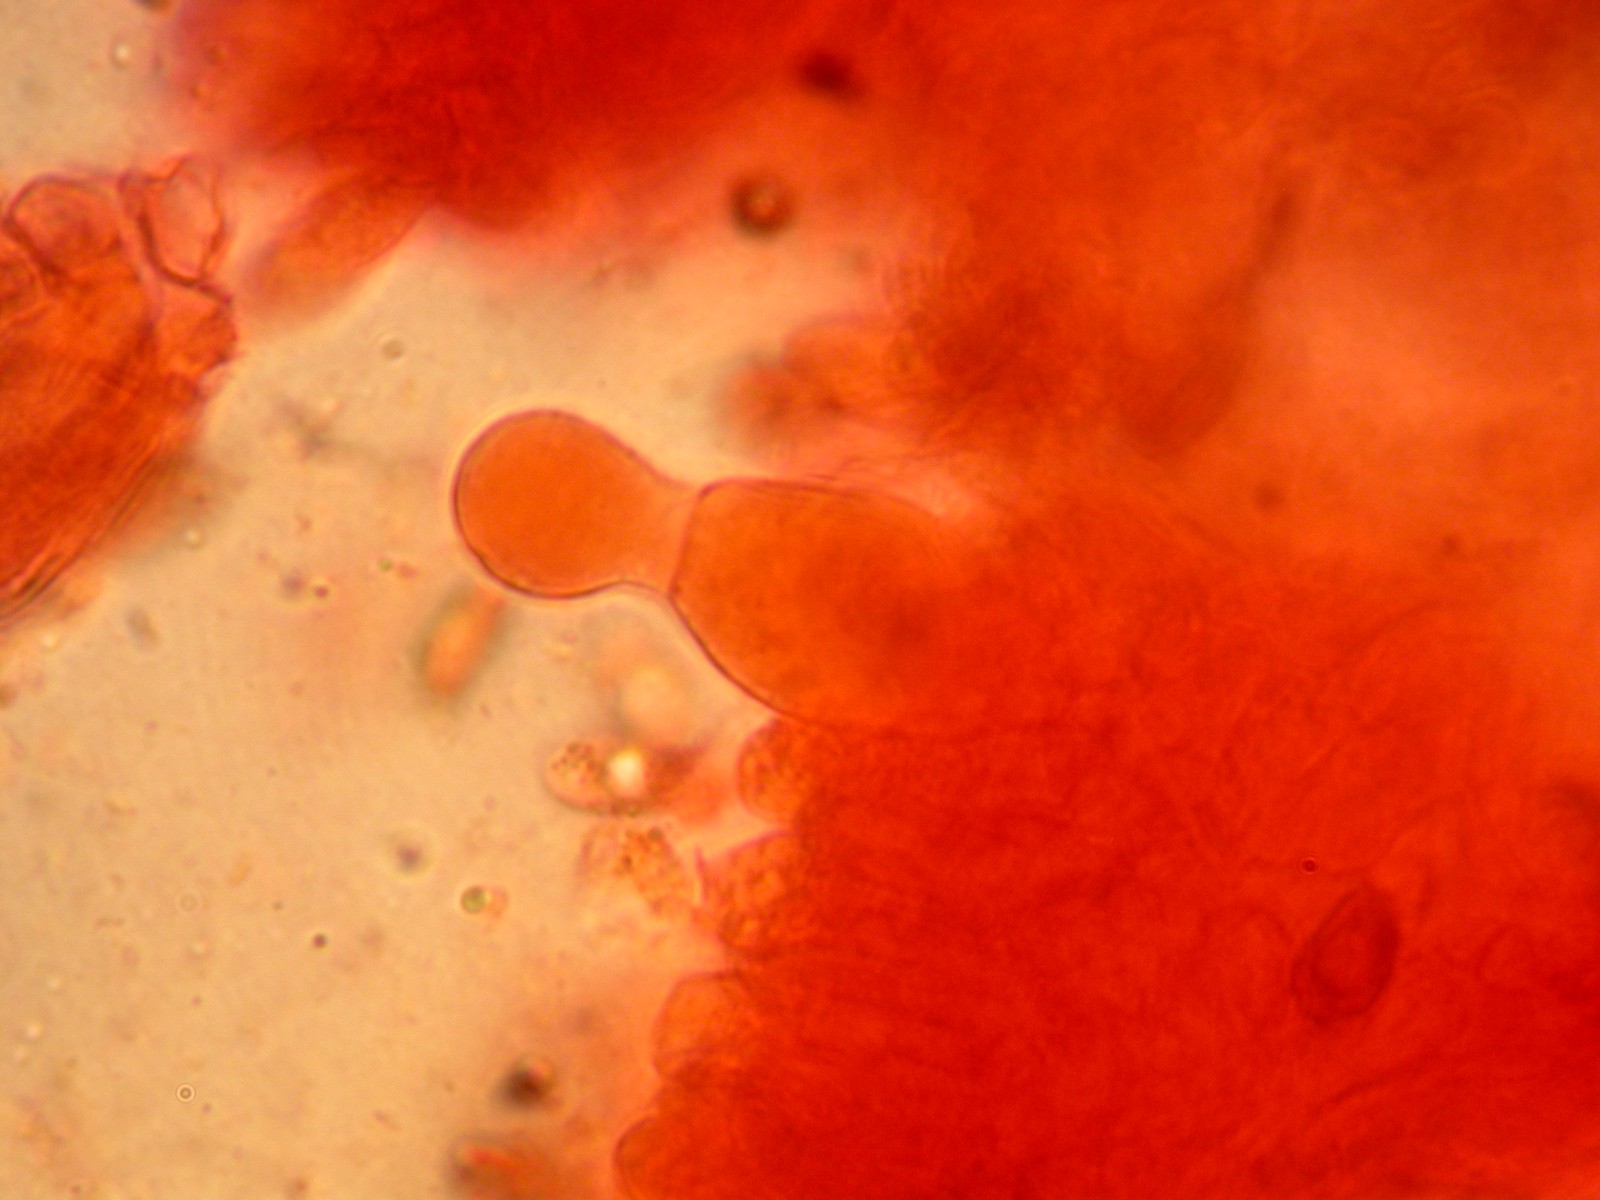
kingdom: Fungi
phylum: Basidiomycota
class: Agaricomycetes
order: Agaricales
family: Psathyrellaceae
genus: Psathyrella
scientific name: Psathyrella cotonea
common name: skællet mørkhat
